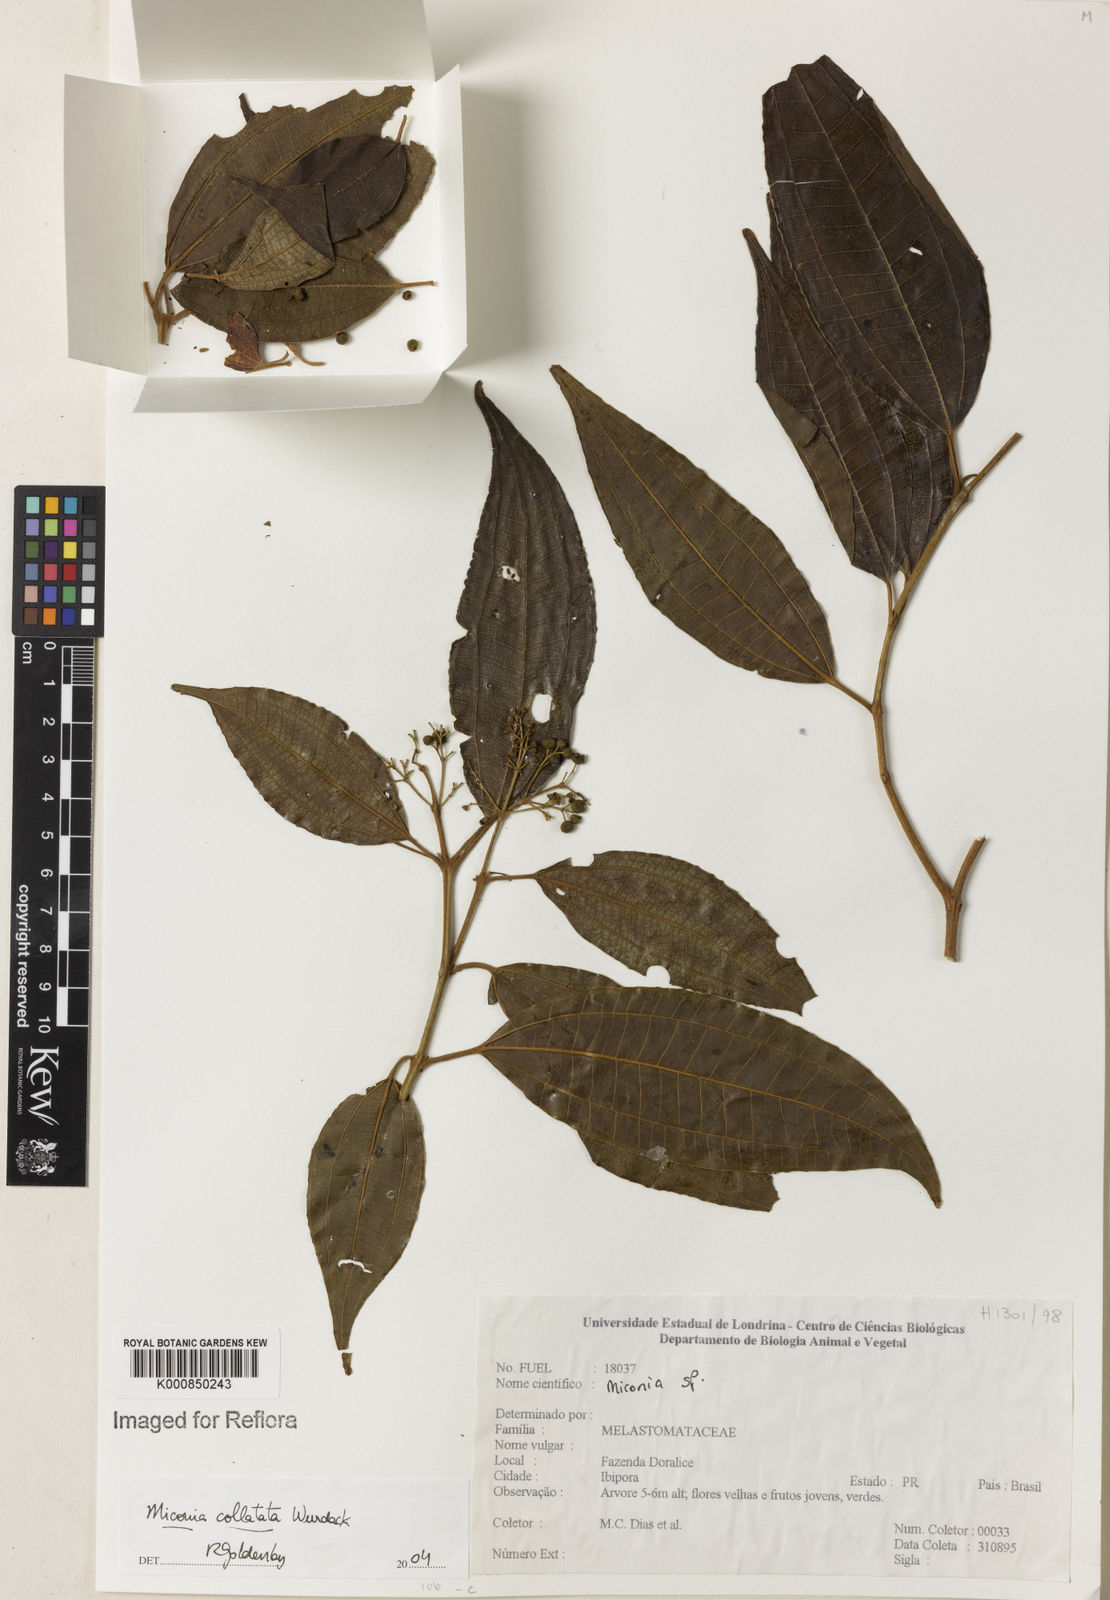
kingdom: Plantae
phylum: Tracheophyta
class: Magnoliopsida
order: Myrtales
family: Melastomataceae
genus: Miconia
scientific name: Miconia collatata
